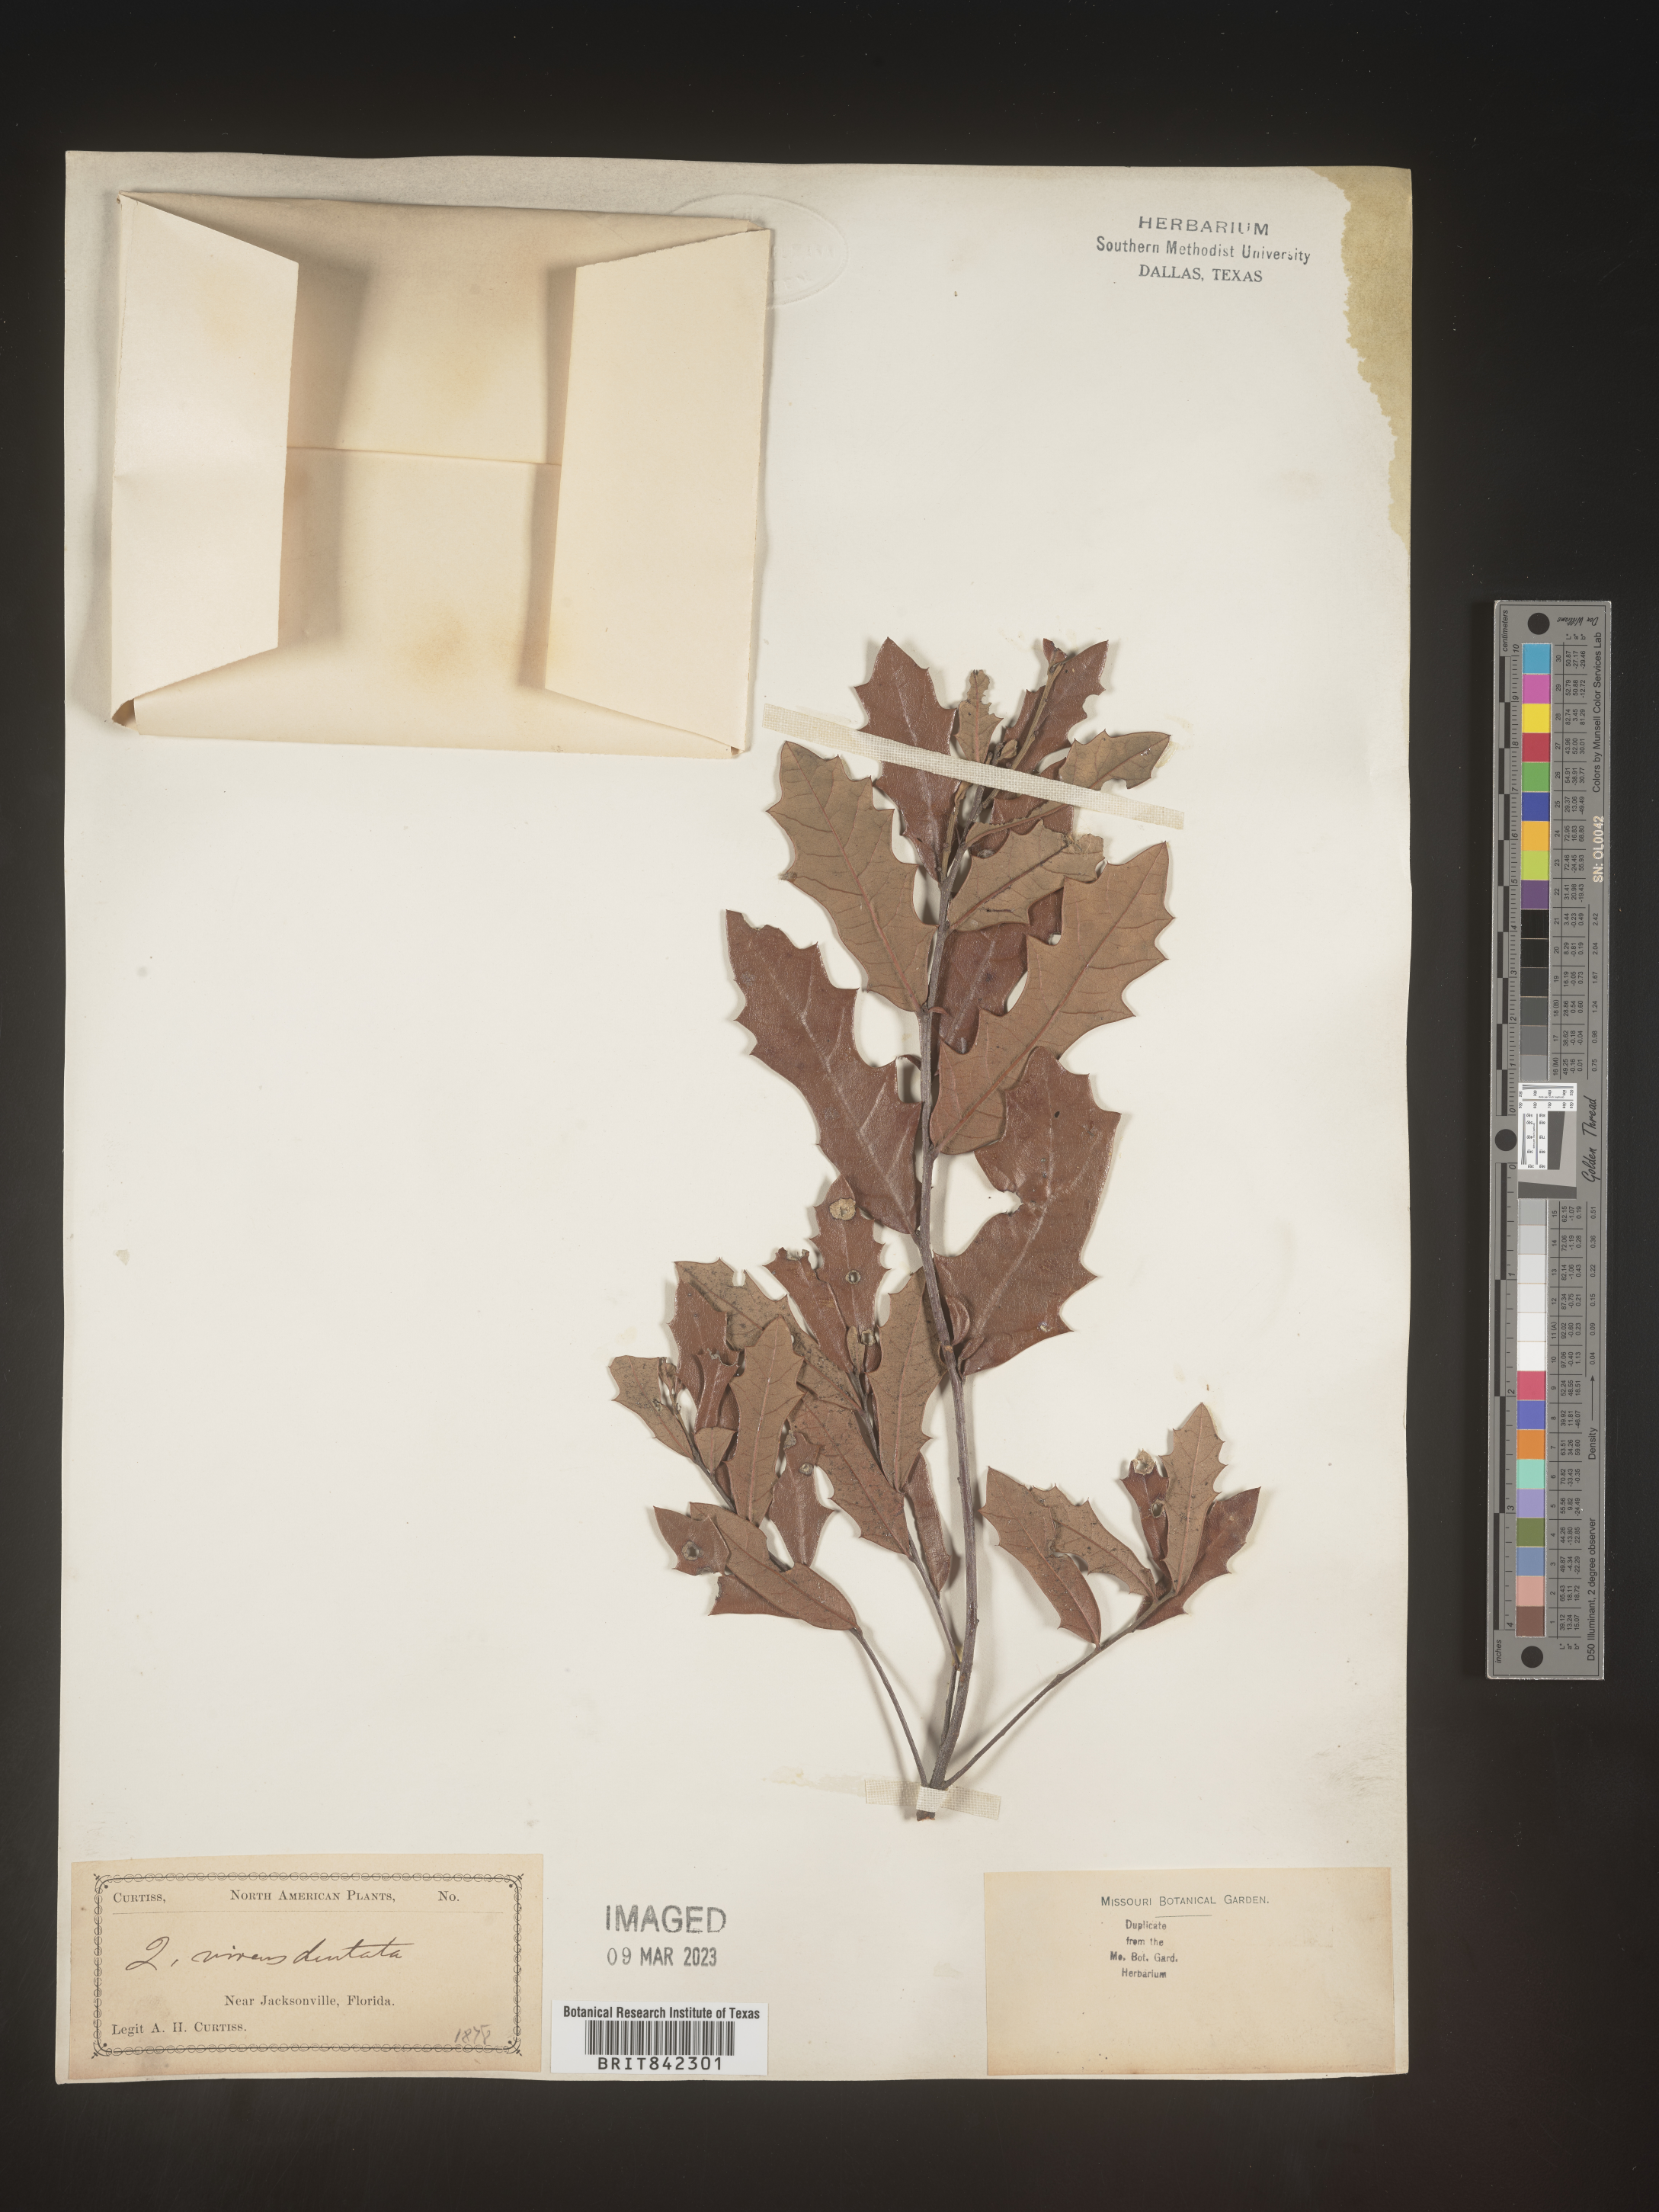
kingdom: Plantae
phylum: Tracheophyta
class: Magnoliopsida
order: Fagales
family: Fagaceae
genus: Quercus
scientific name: Quercus virginiana
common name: Southern live oak
